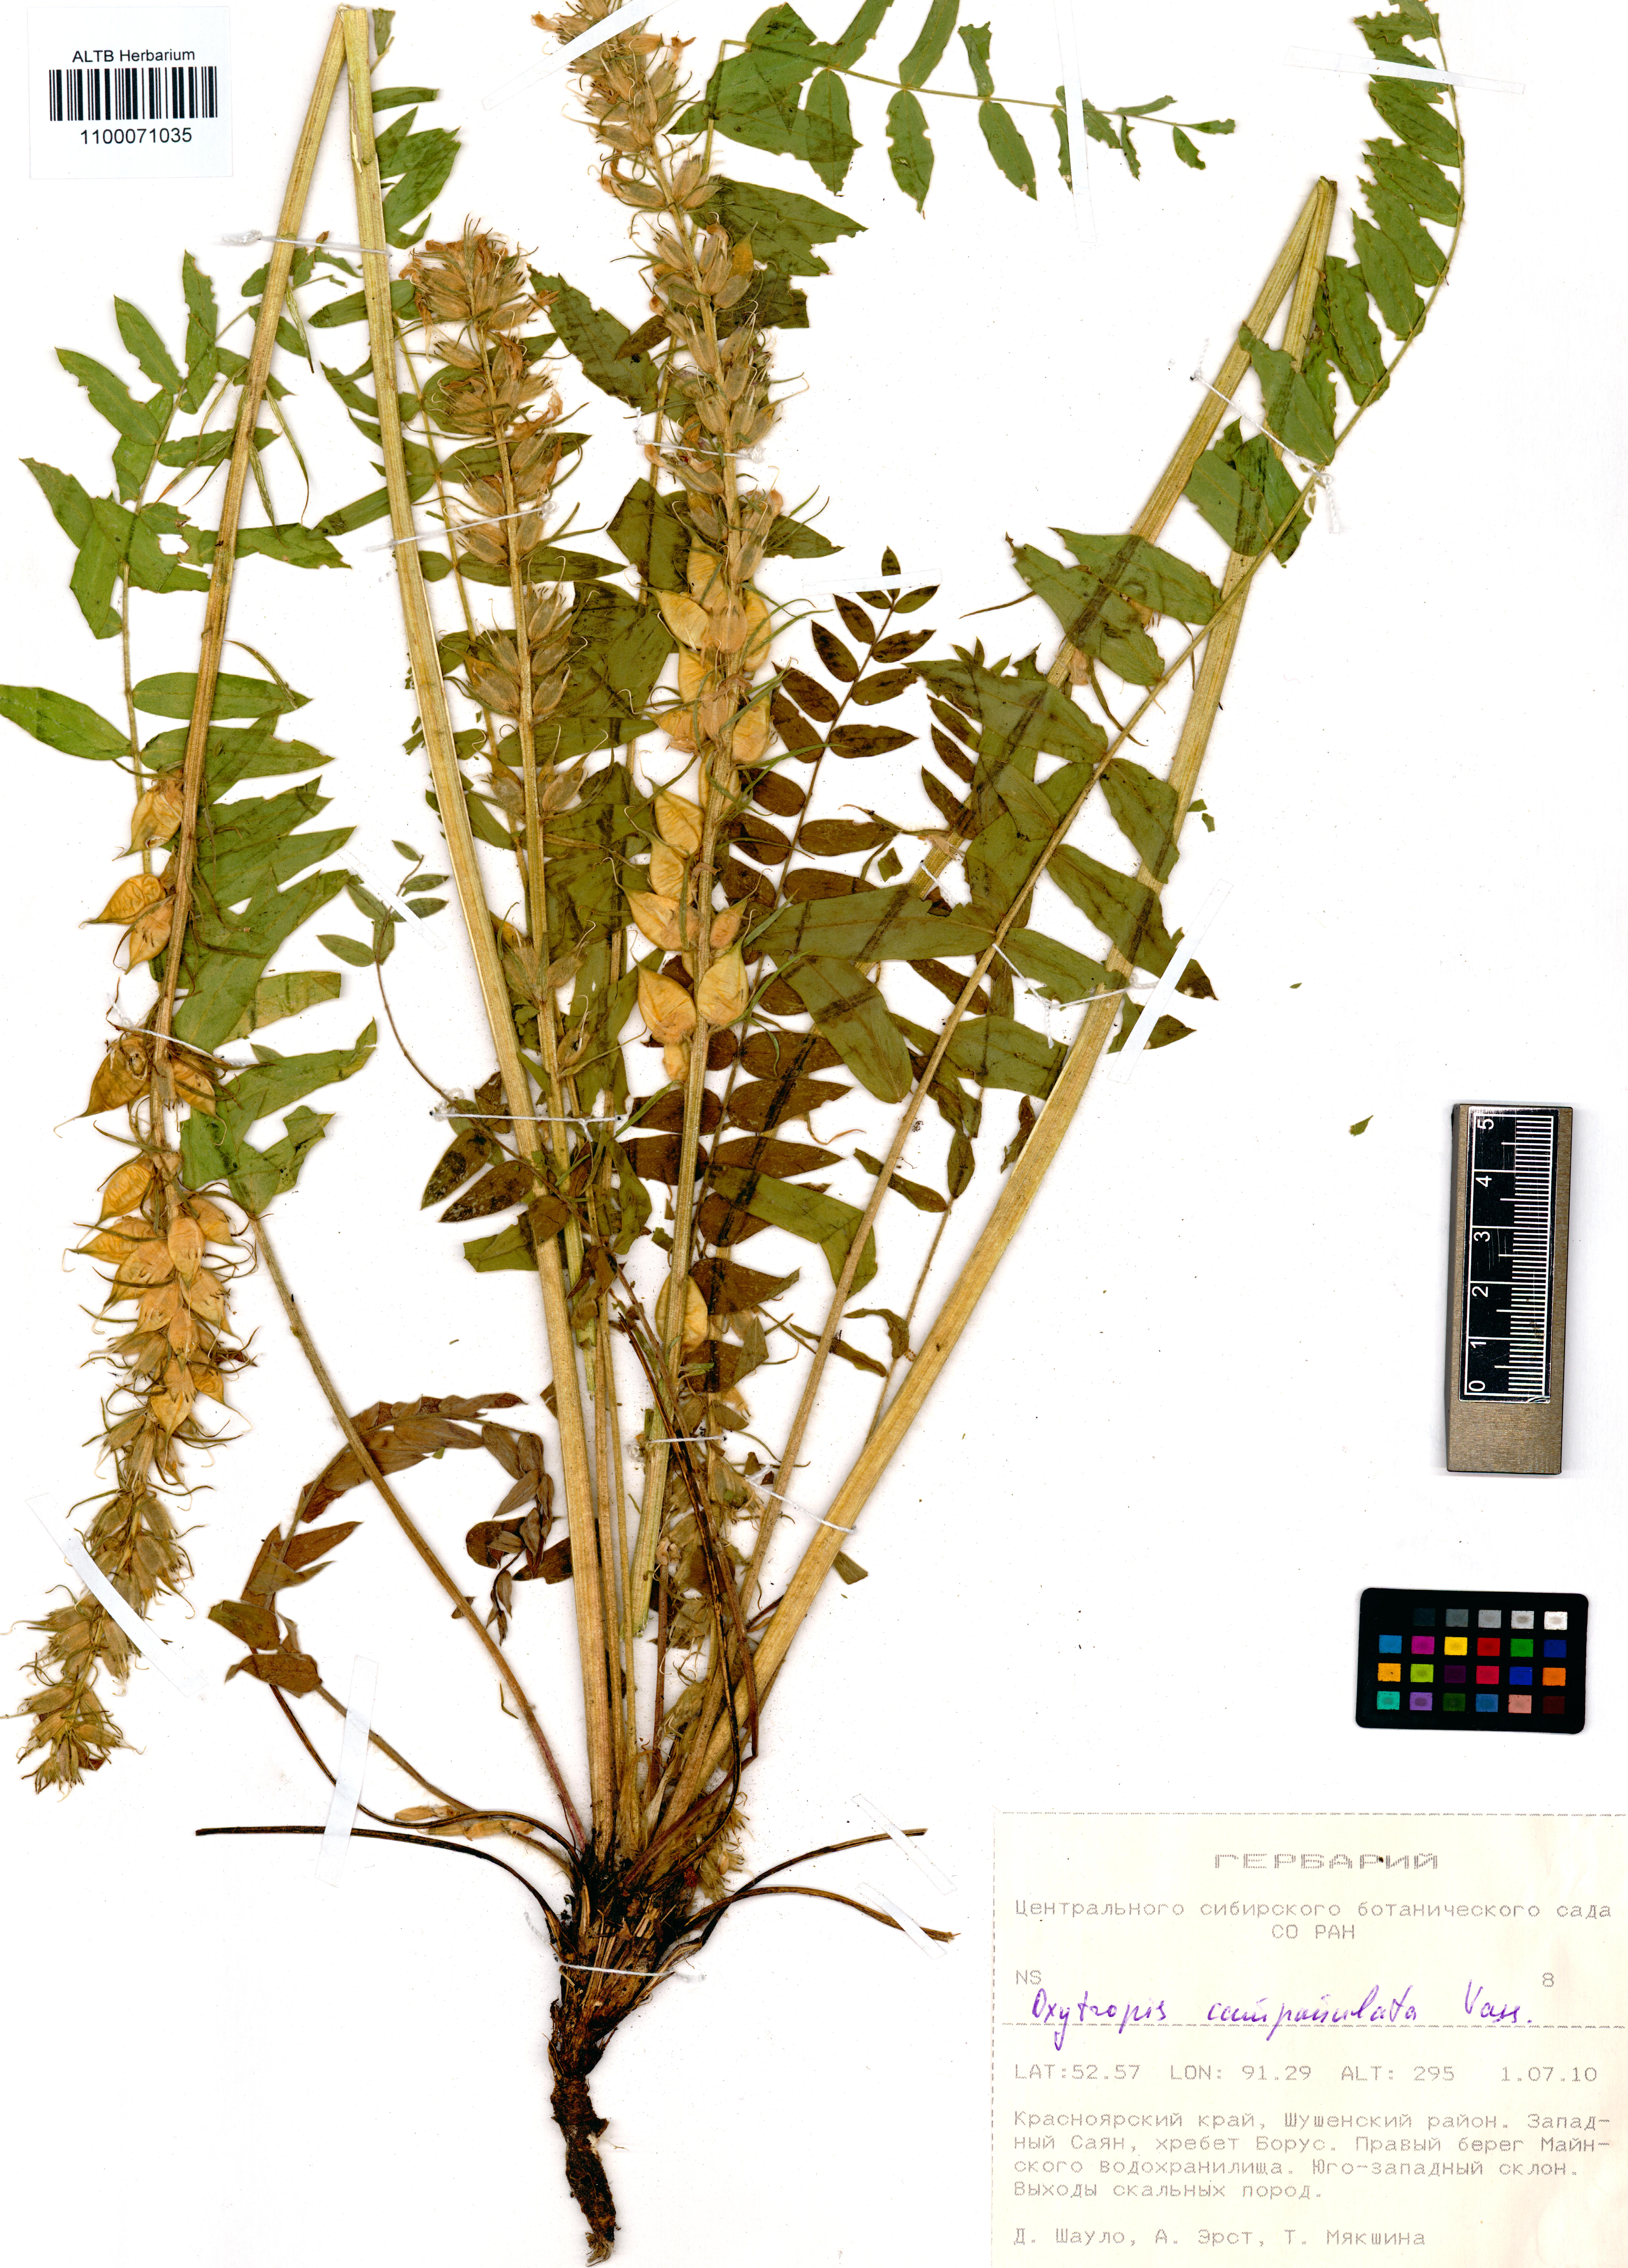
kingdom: Plantae
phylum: Tracheophyta
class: Magnoliopsida
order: Fabales
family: Fabaceae
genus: Oxytropis
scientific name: Oxytropis campanulata
